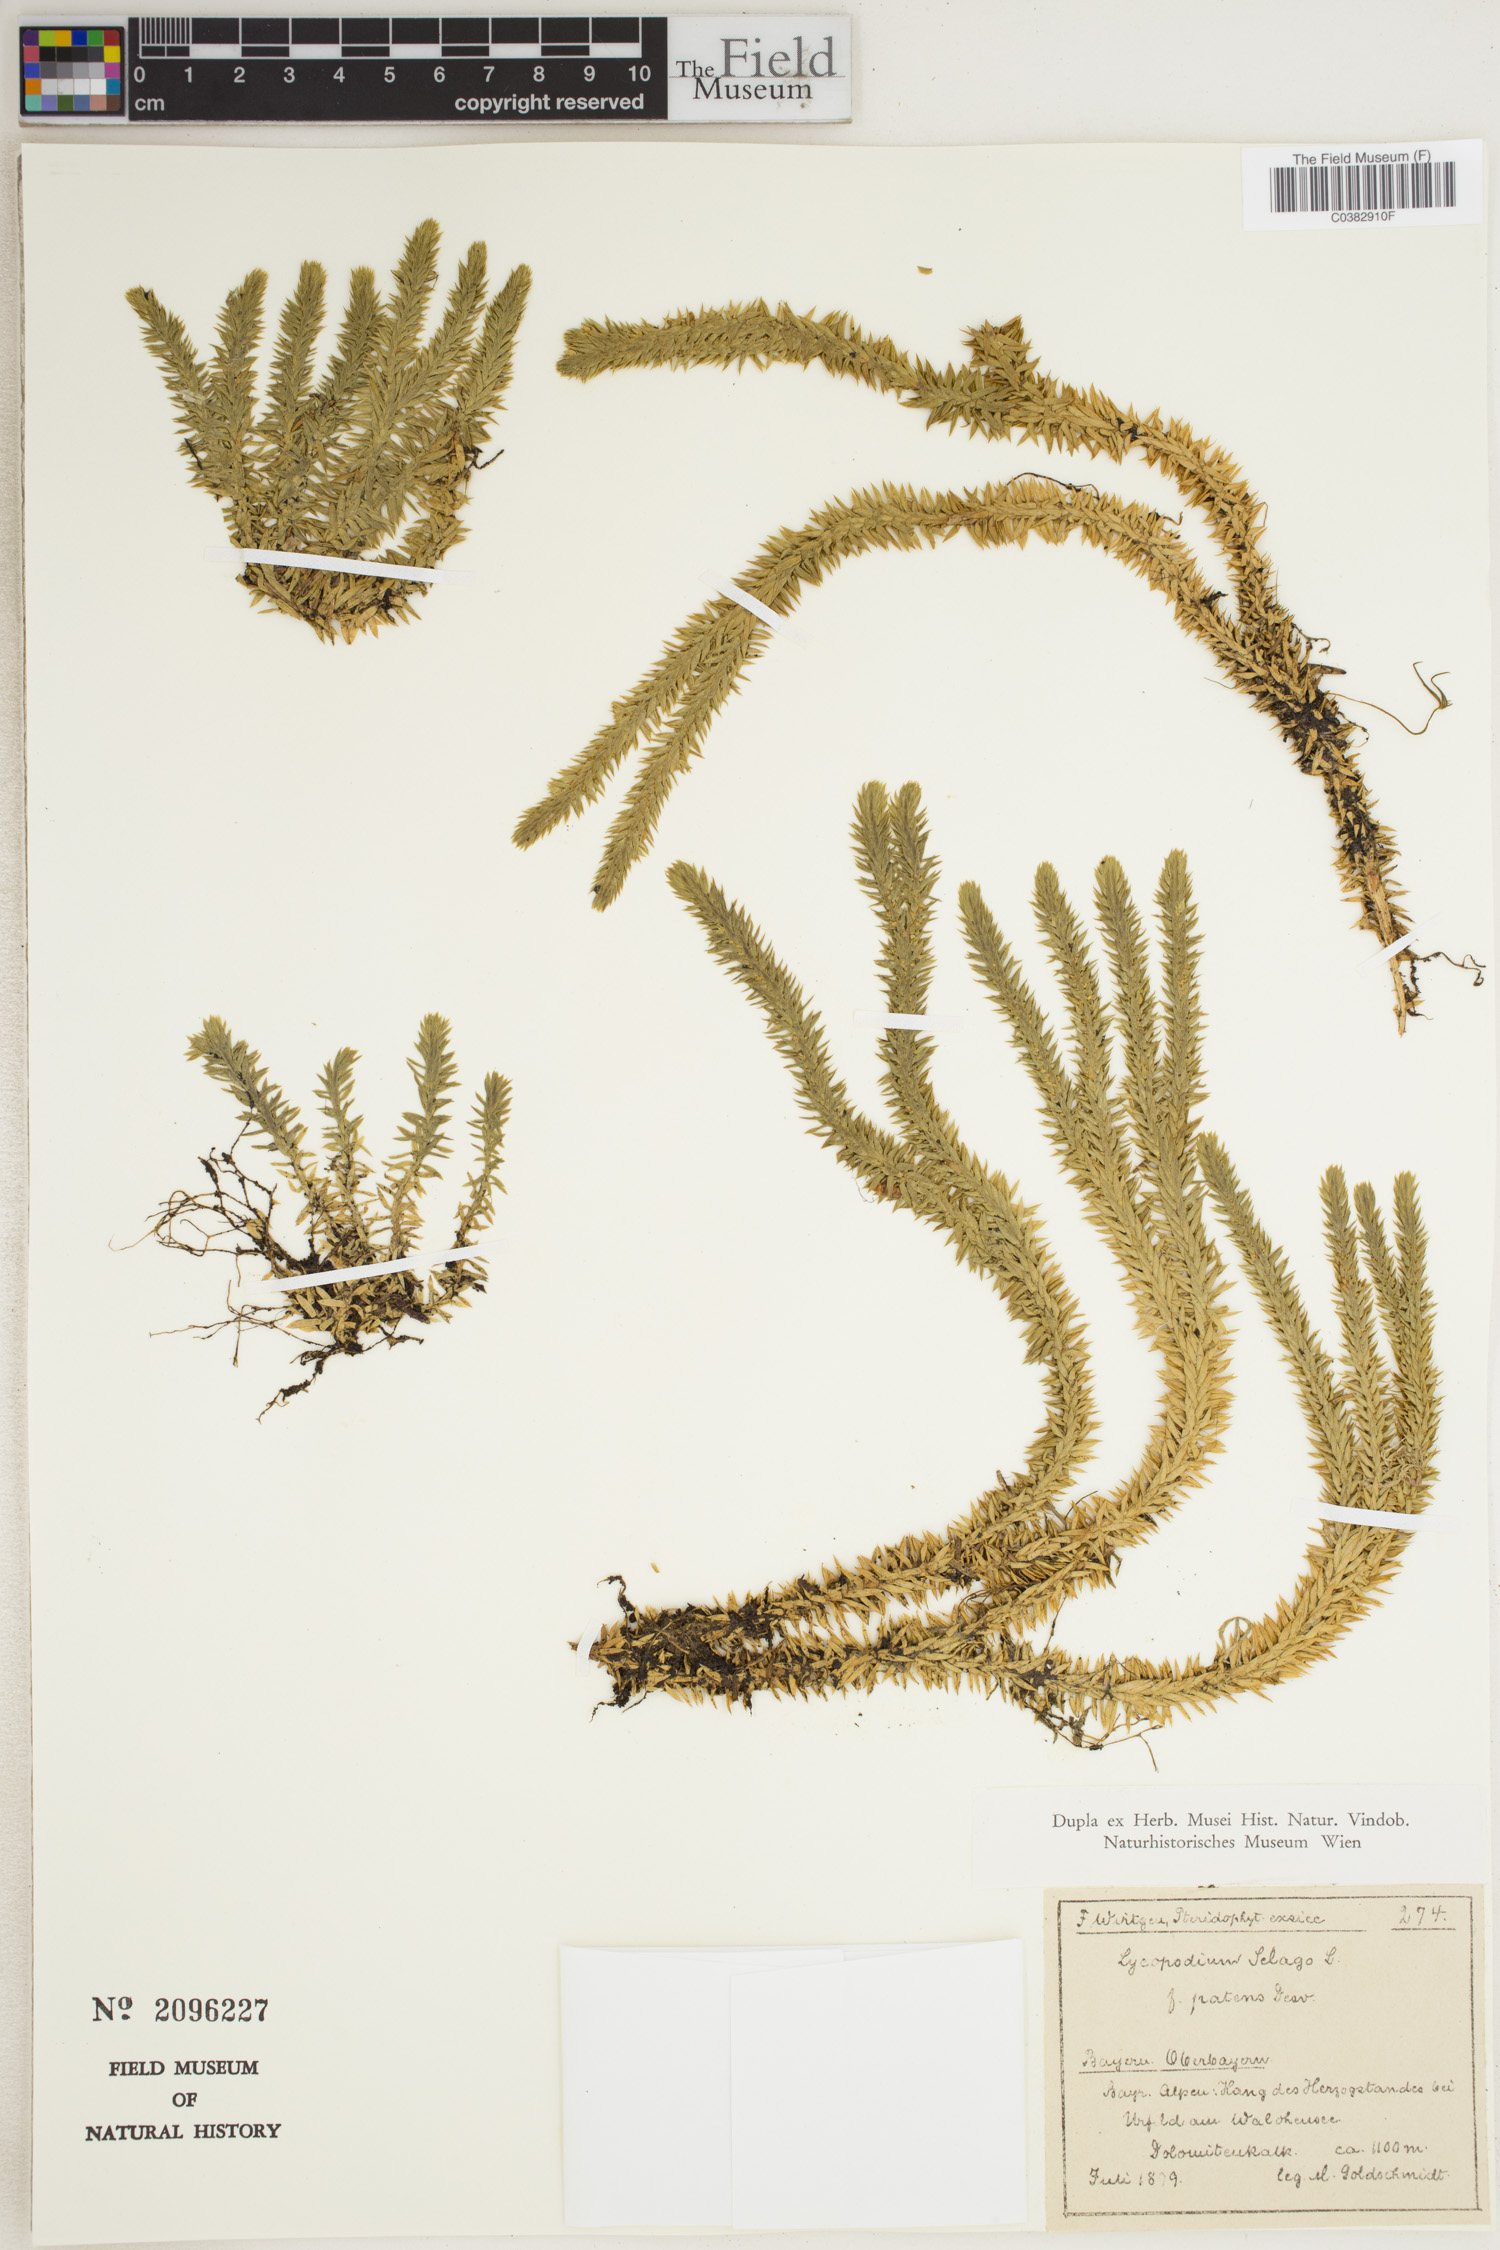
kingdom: Plantae
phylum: Tracheophyta
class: Lycopodiopsida
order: Lycopodiales
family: Lycopodiaceae
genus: Huperzia
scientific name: Huperzia selago
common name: Northern firmoss
